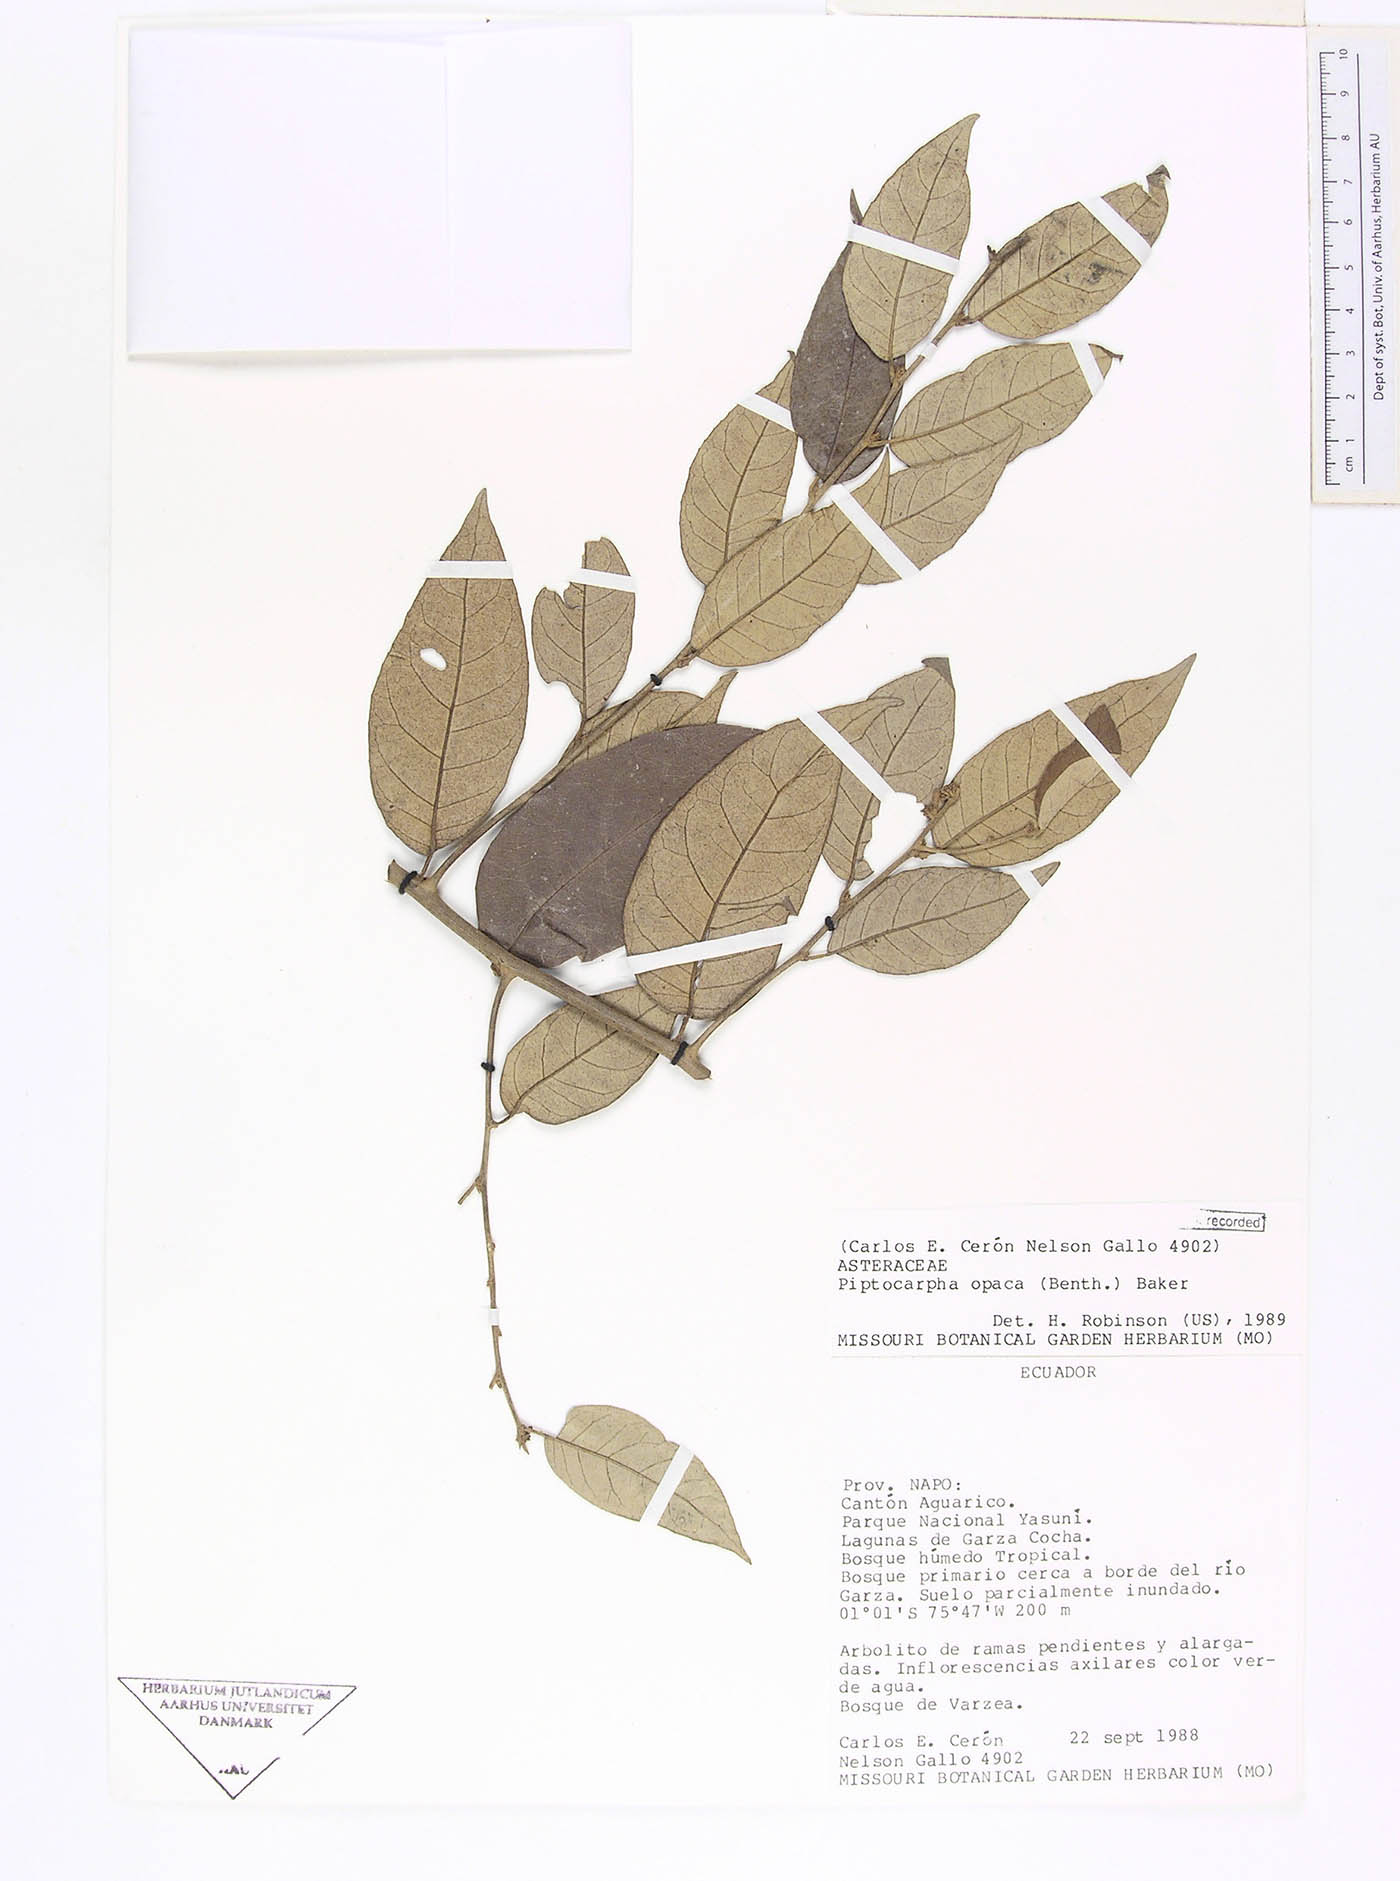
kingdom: Plantae
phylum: Tracheophyta
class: Magnoliopsida
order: Asterales
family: Asteraceae
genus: Piptocarpha
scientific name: Piptocarpha opaca
